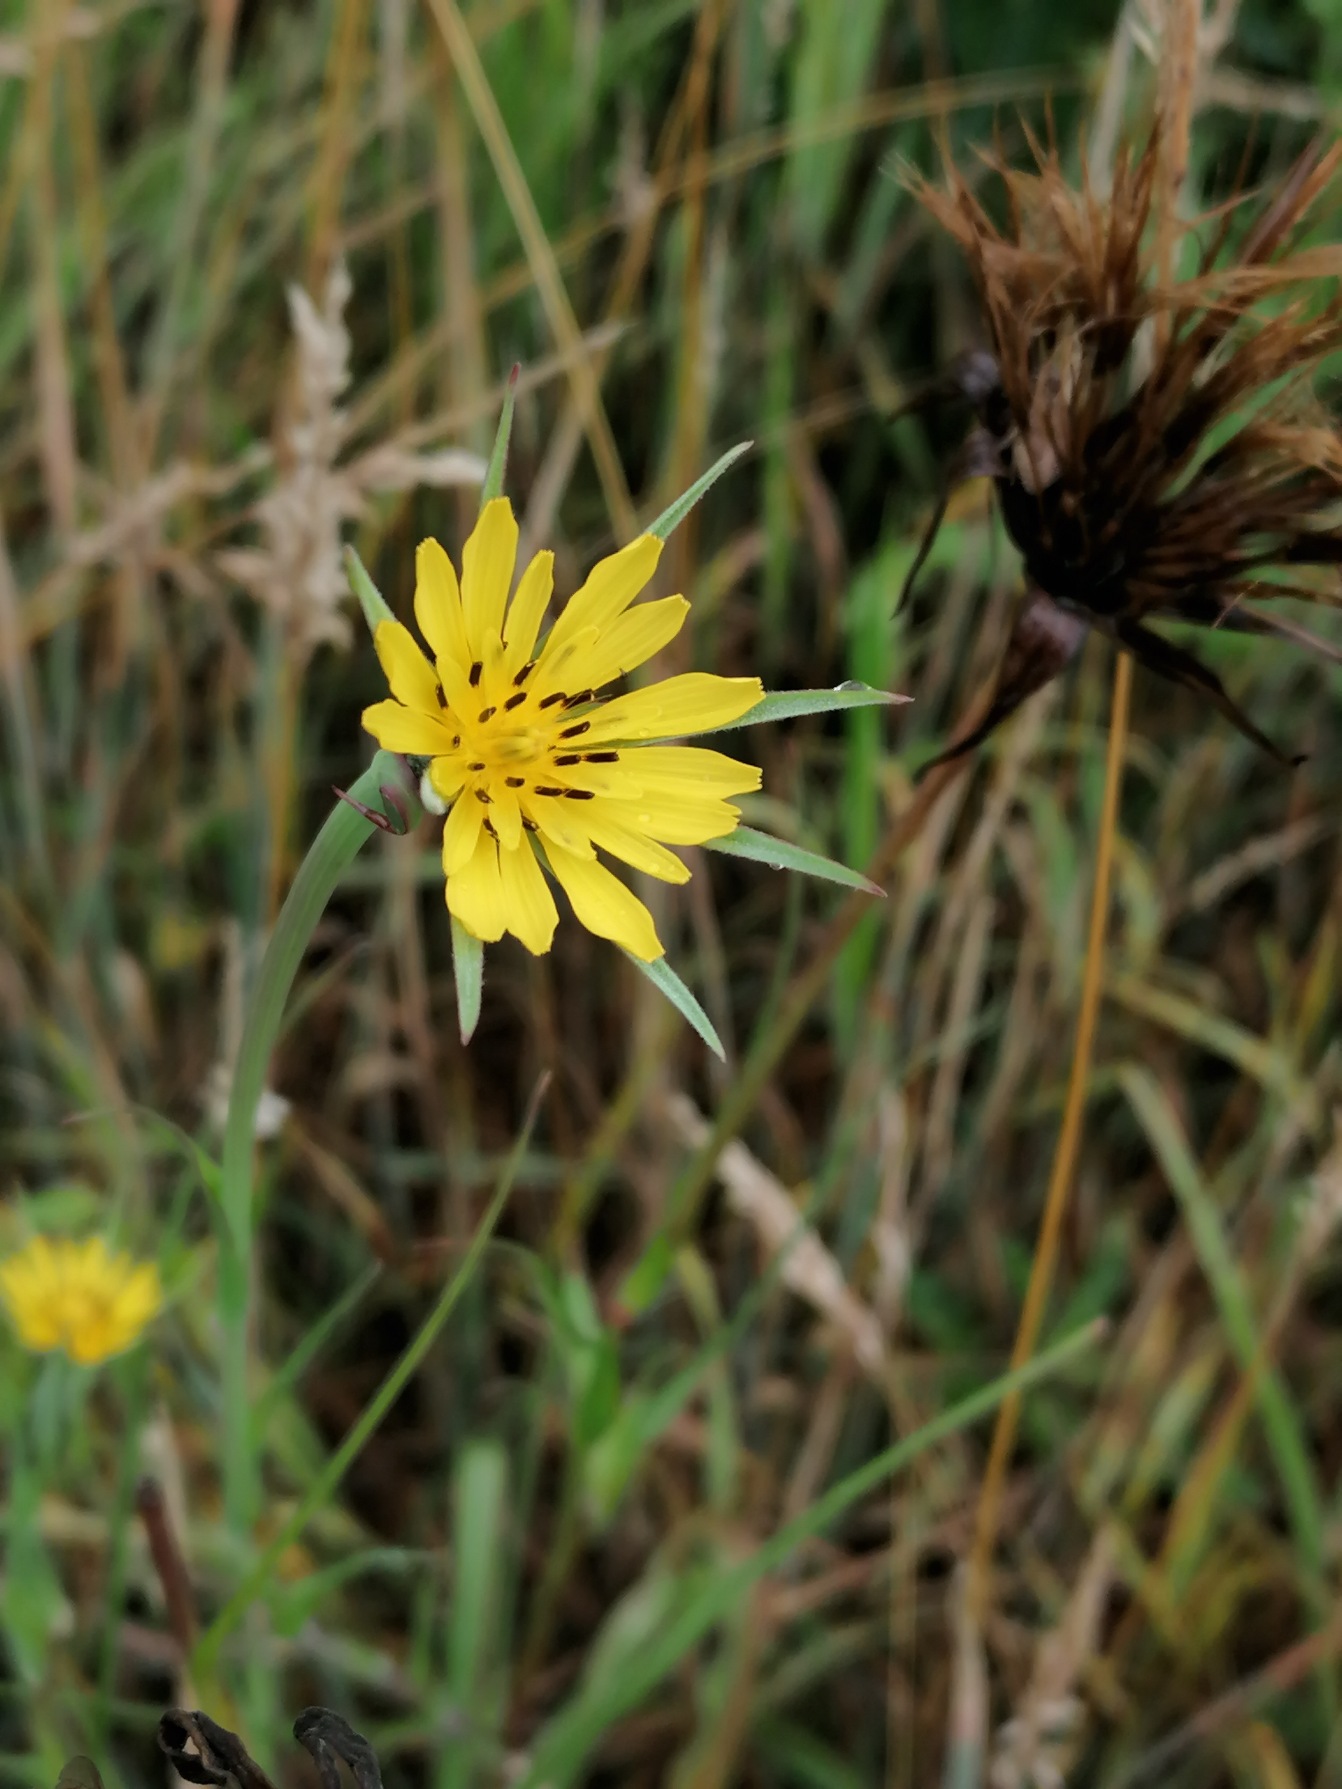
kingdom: Plantae
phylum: Tracheophyta
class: Magnoliopsida
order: Asterales
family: Asteraceae
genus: Tragopogon
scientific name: Tragopogon minor
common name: Småkronet gedeskæg
